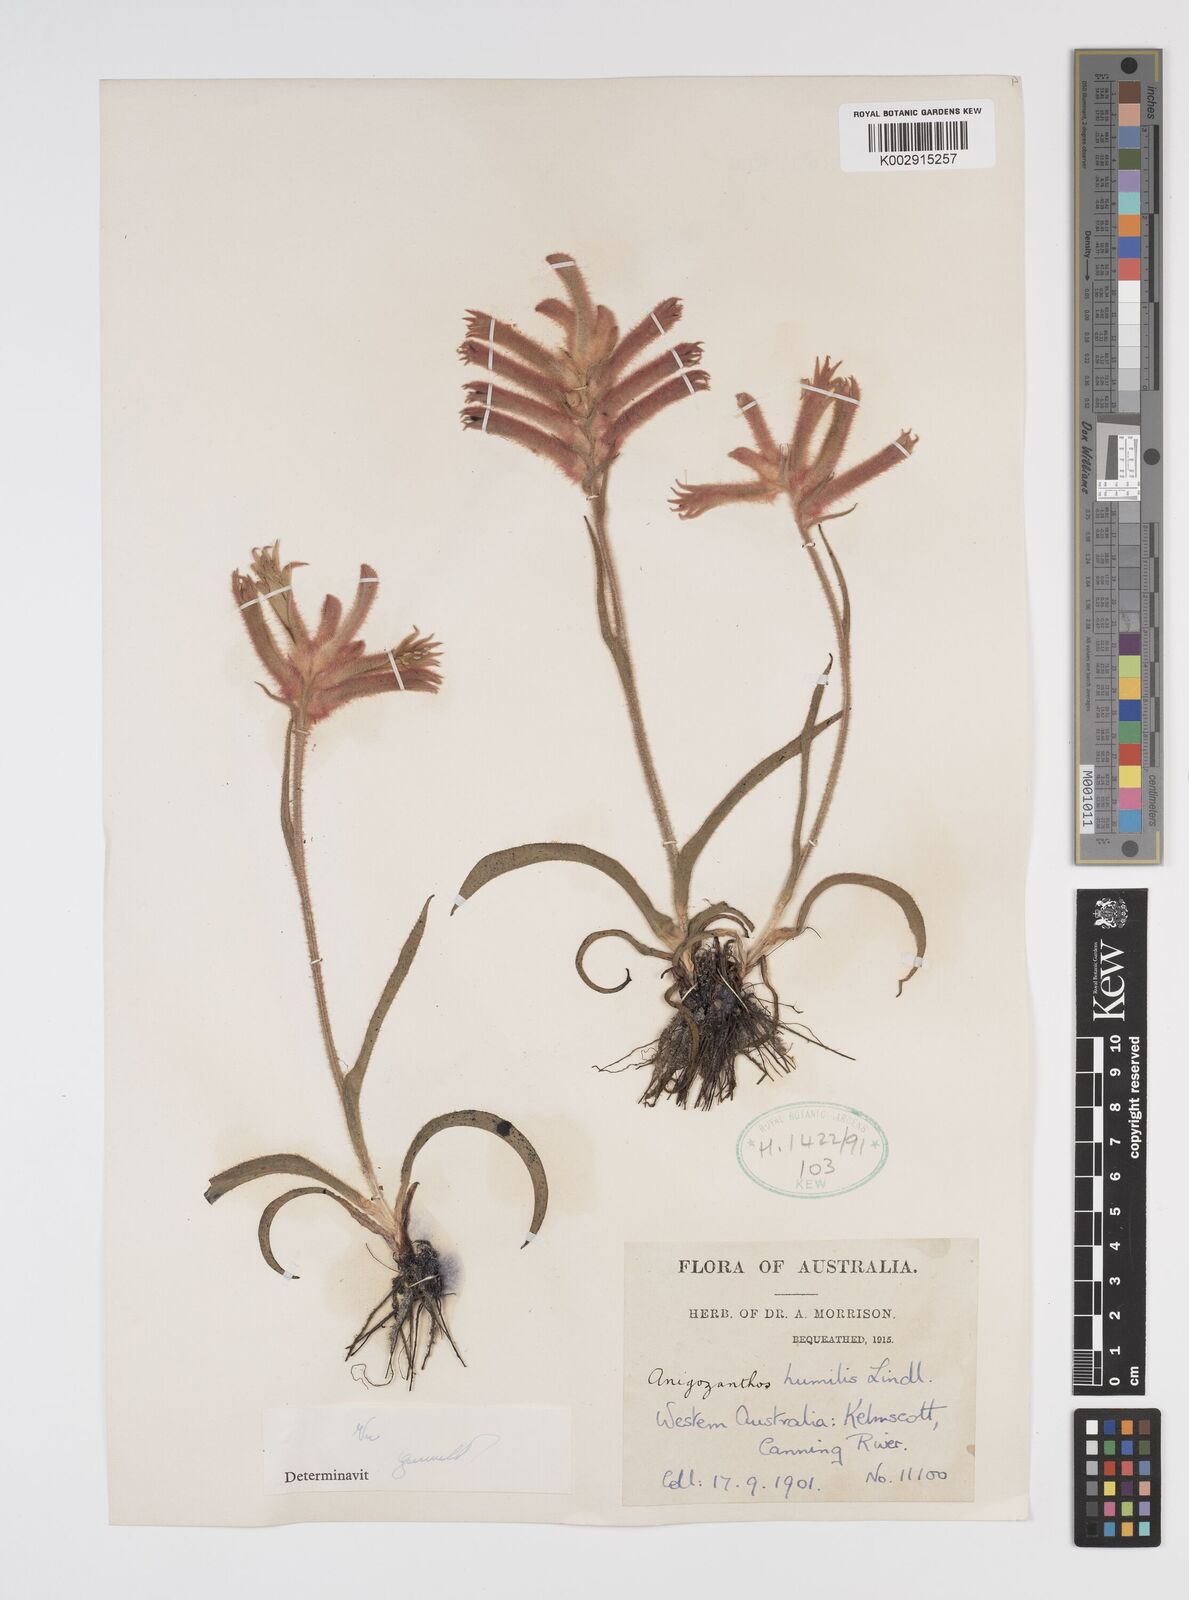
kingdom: Plantae
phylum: Tracheophyta
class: Liliopsida
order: Commelinales
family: Haemodoraceae
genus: Anigozanthos
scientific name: Anigozanthos humilis
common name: Cat's-paw
